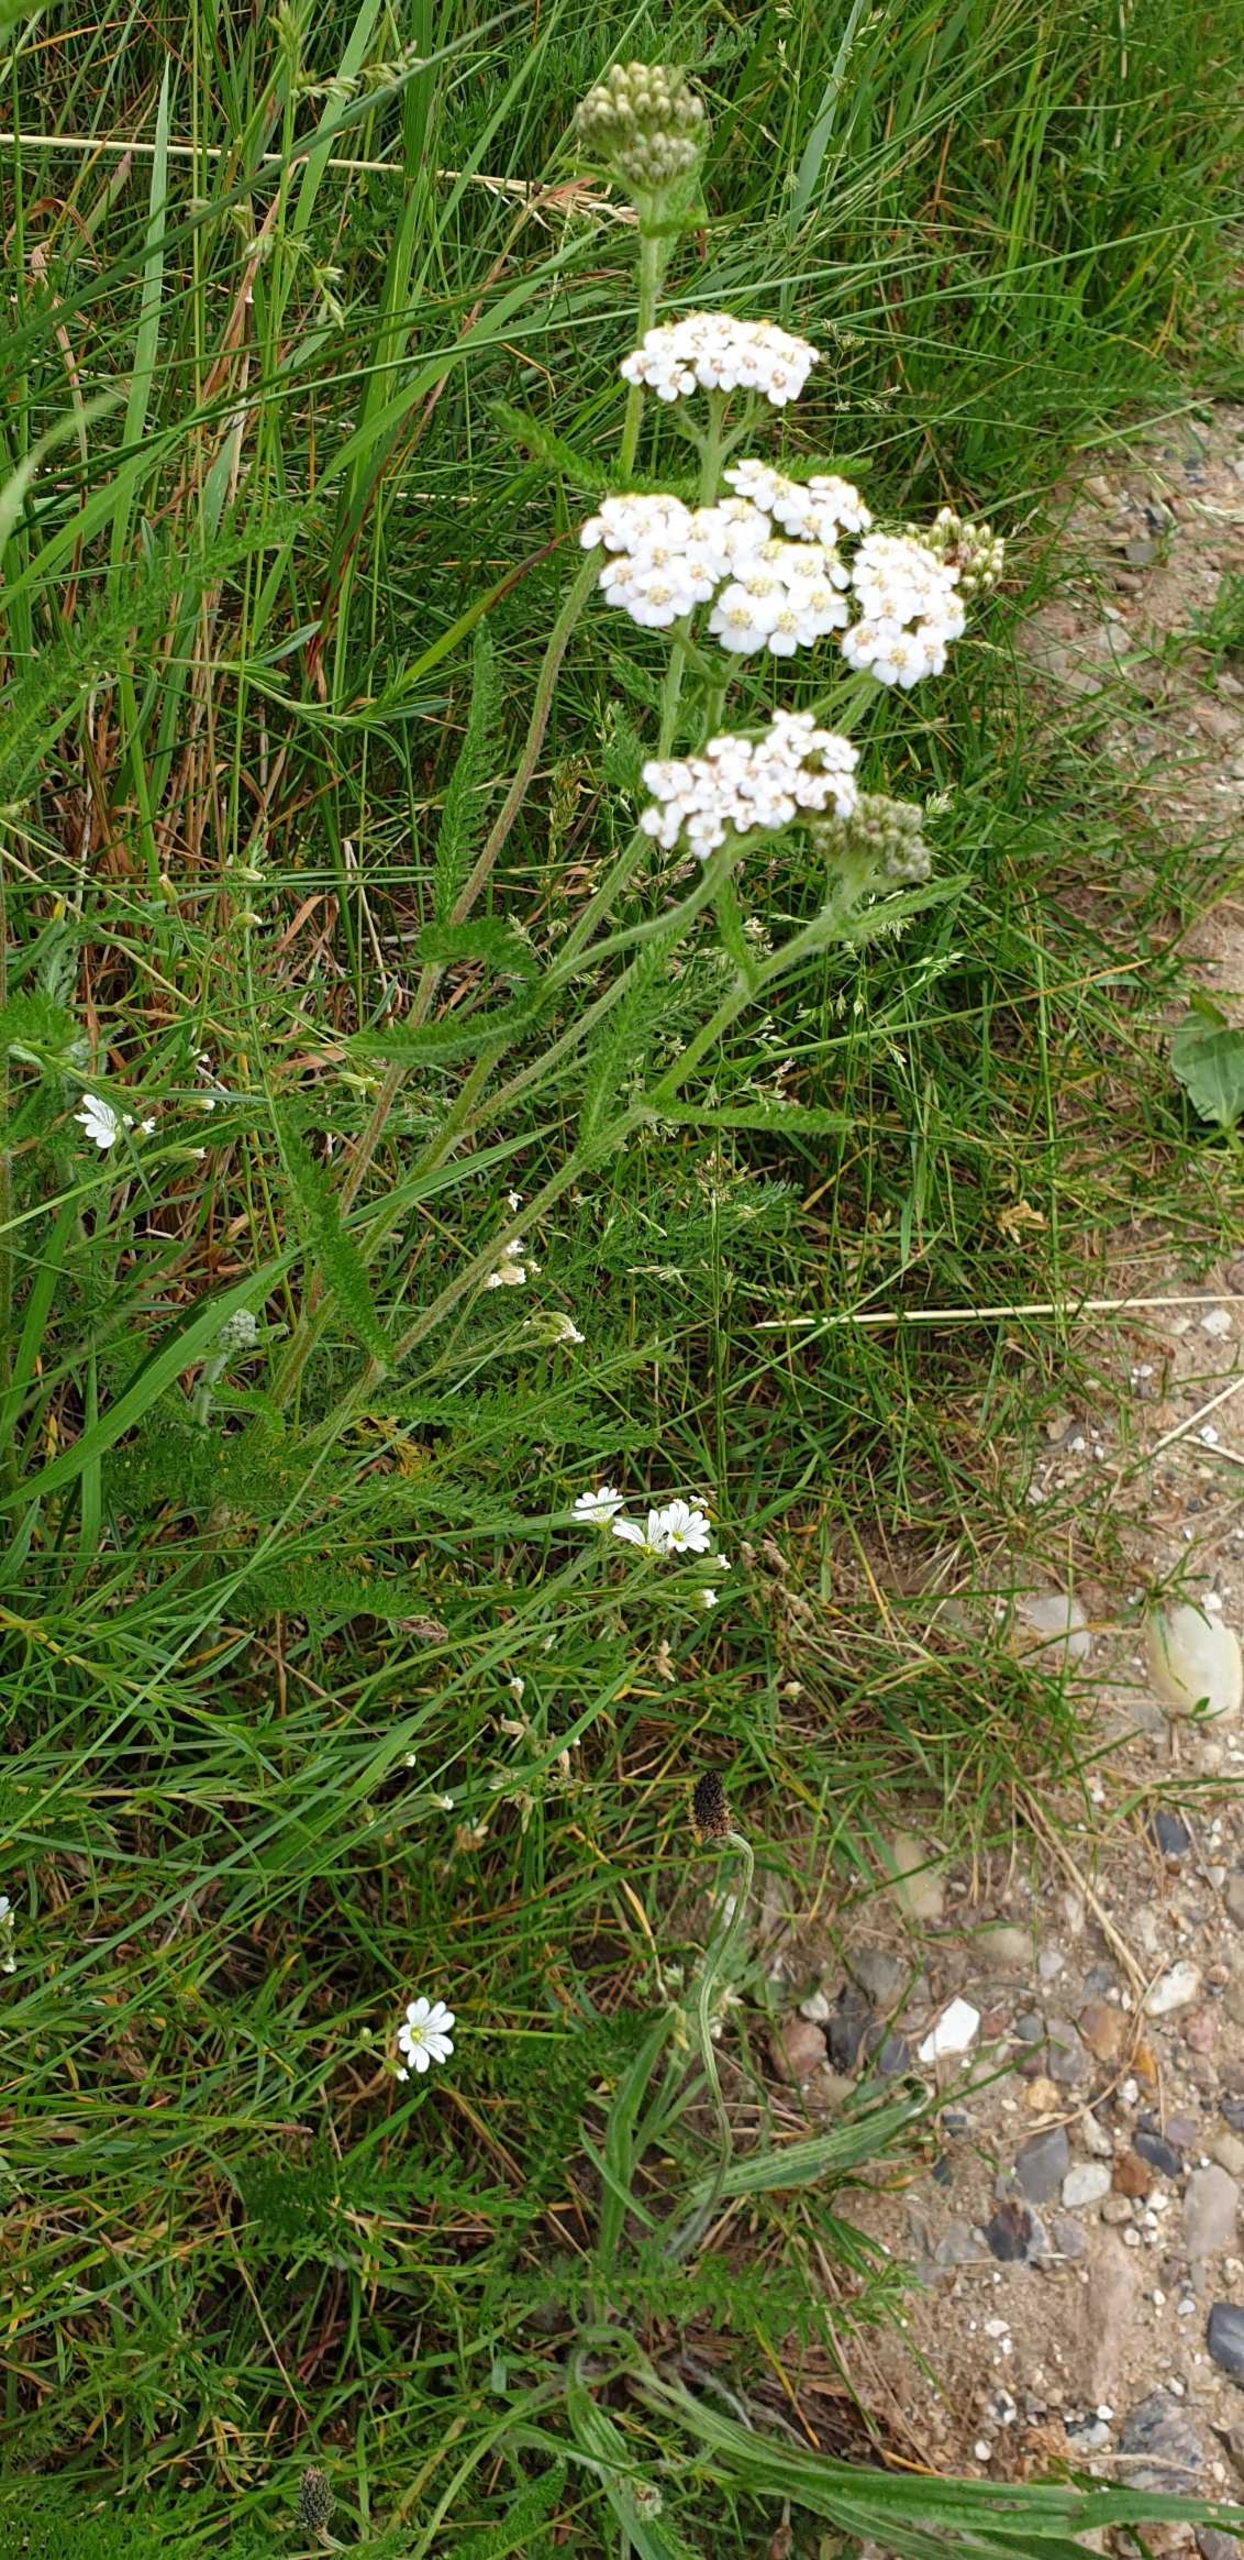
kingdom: Plantae
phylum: Tracheophyta
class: Magnoliopsida
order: Asterales
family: Asteraceae
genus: Achillea
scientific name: Achillea millefolium
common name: Almindelig røllike
